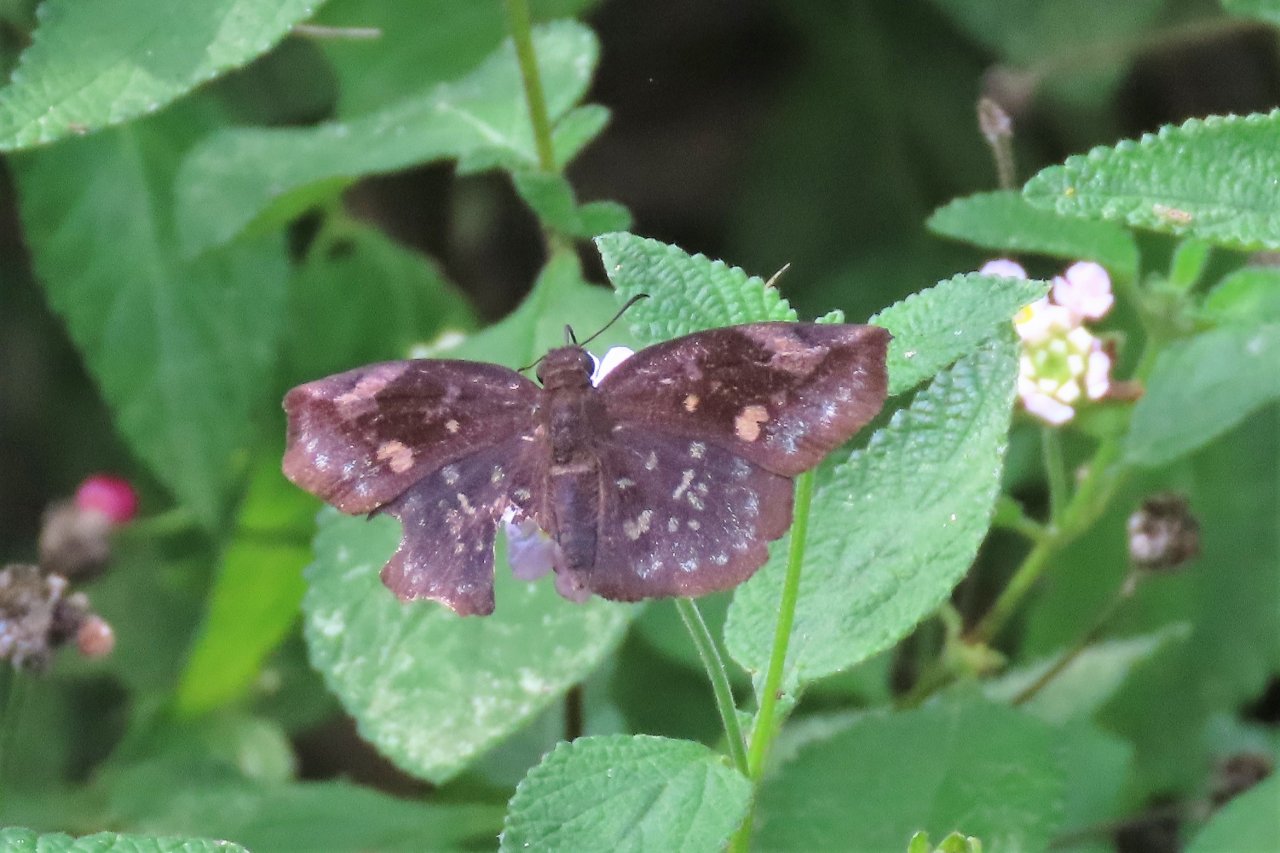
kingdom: Animalia
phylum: Arthropoda
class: Insecta
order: Lepidoptera
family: Hesperiidae
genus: Achlyodes
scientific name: Achlyodes thraso
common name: Sickle-winged Skipper
